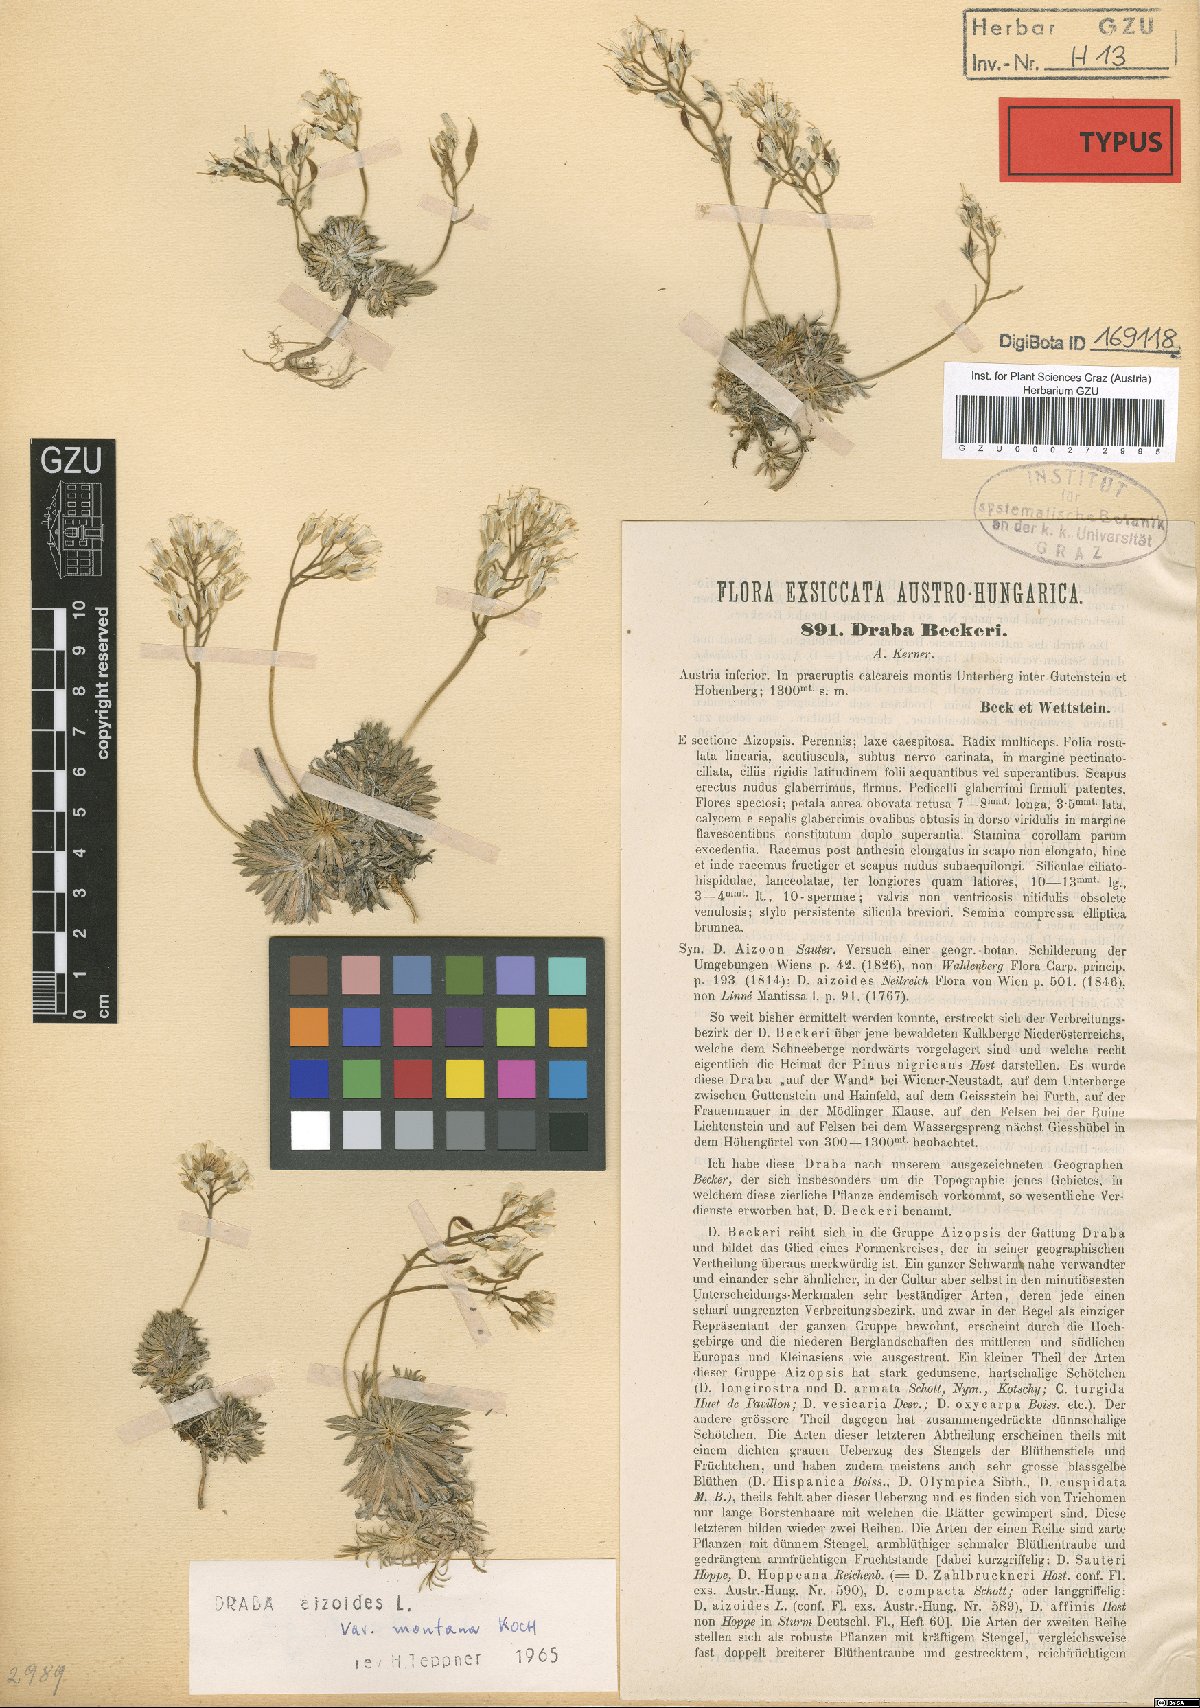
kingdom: Plantae
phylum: Tracheophyta
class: Magnoliopsida
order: Brassicales
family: Brassicaceae
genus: Draba
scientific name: Draba aizoides
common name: Yellow whitlowgrass
